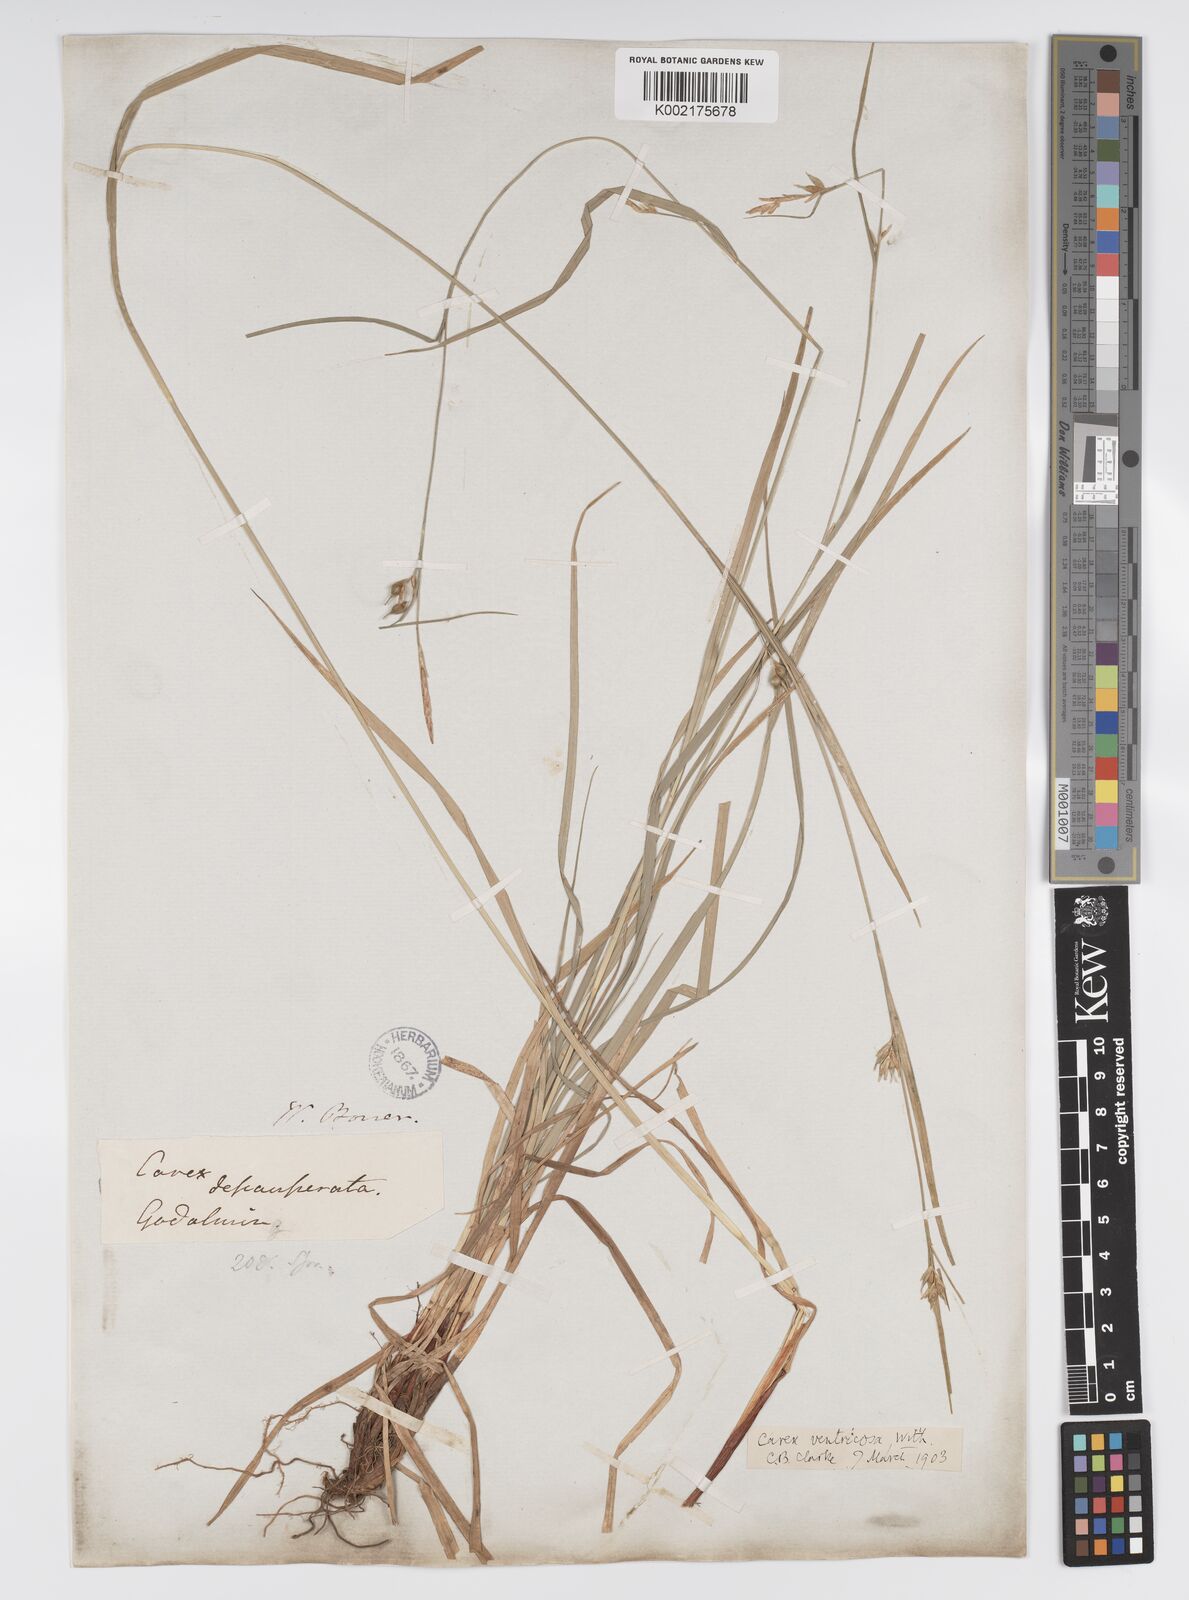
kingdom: Plantae
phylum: Tracheophyta
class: Liliopsida
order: Poales
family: Cyperaceae
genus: Carex
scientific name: Carex vaginata
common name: Sheathed sedge
